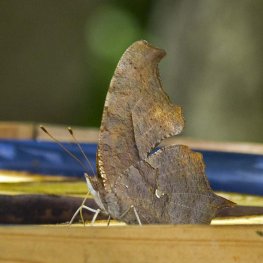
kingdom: Animalia
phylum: Arthropoda
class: Insecta
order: Lepidoptera
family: Nymphalidae
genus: Polygonia
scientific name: Polygonia interrogationis
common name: Question Mark
